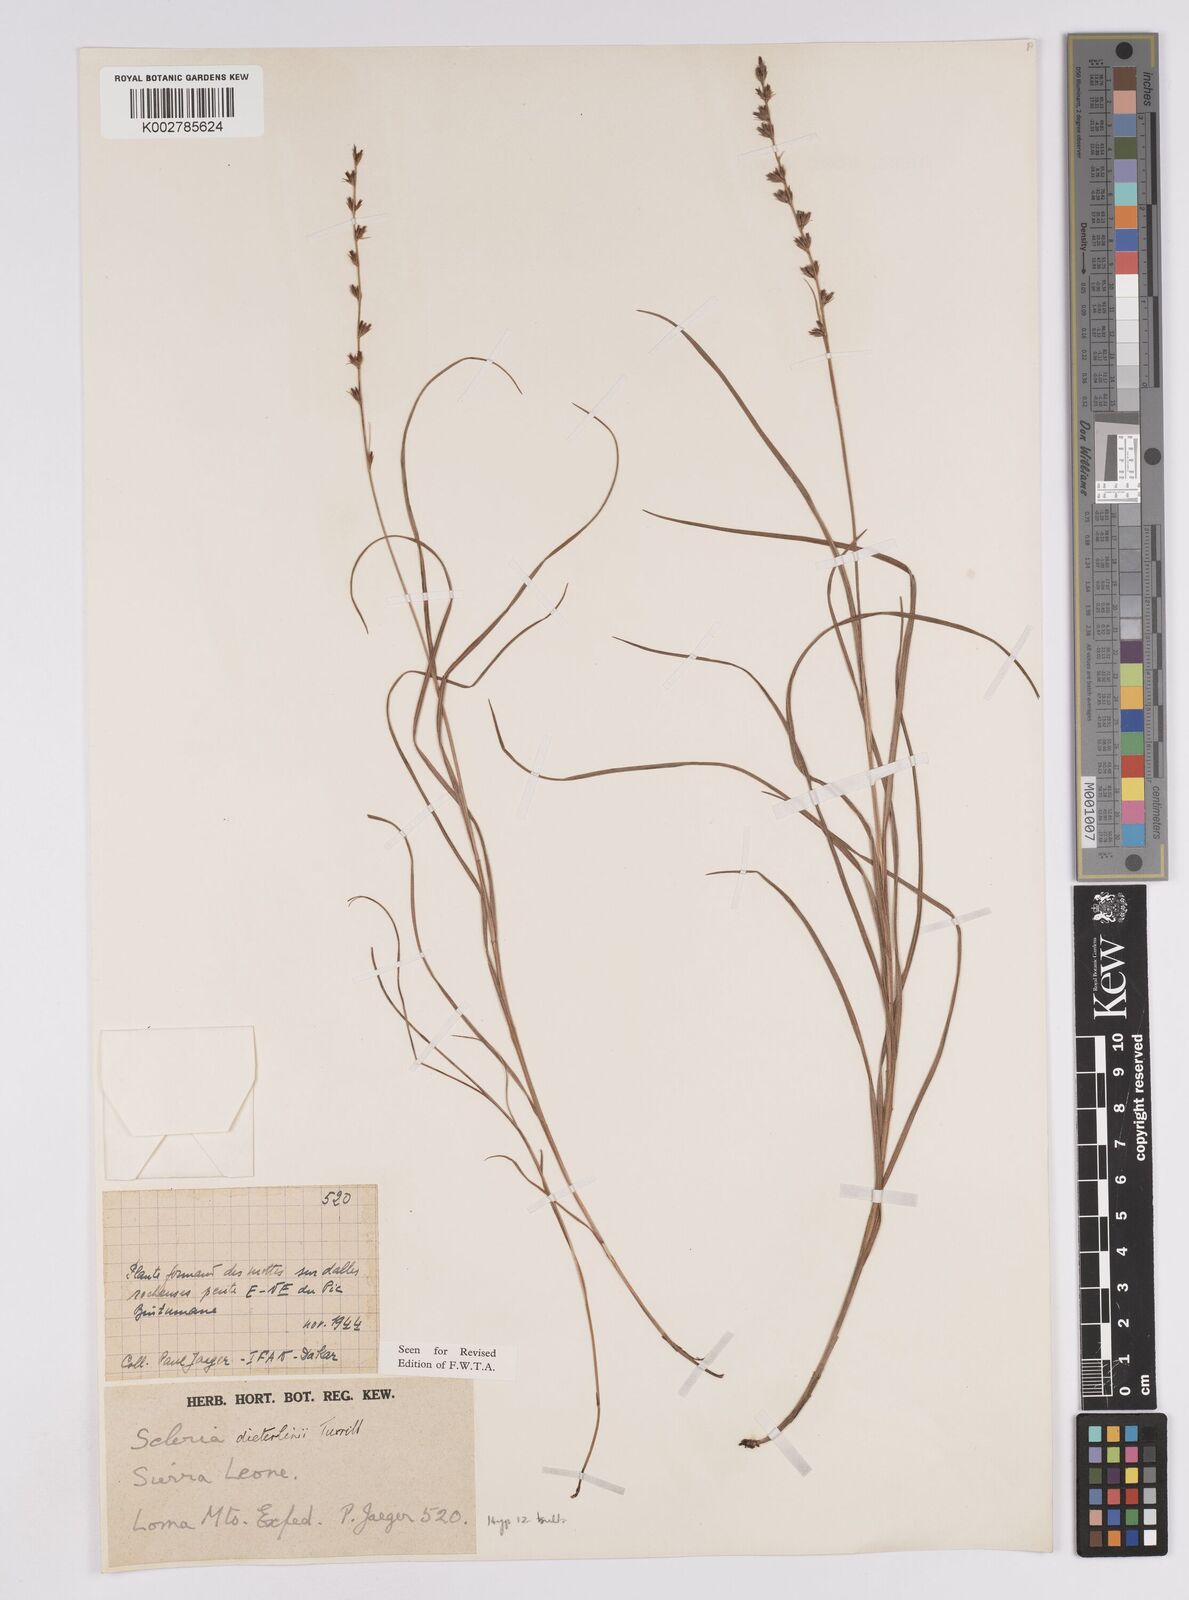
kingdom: Plantae
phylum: Tracheophyta
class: Liliopsida
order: Poales
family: Cyperaceae
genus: Scleria
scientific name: Scleria flexuosa
